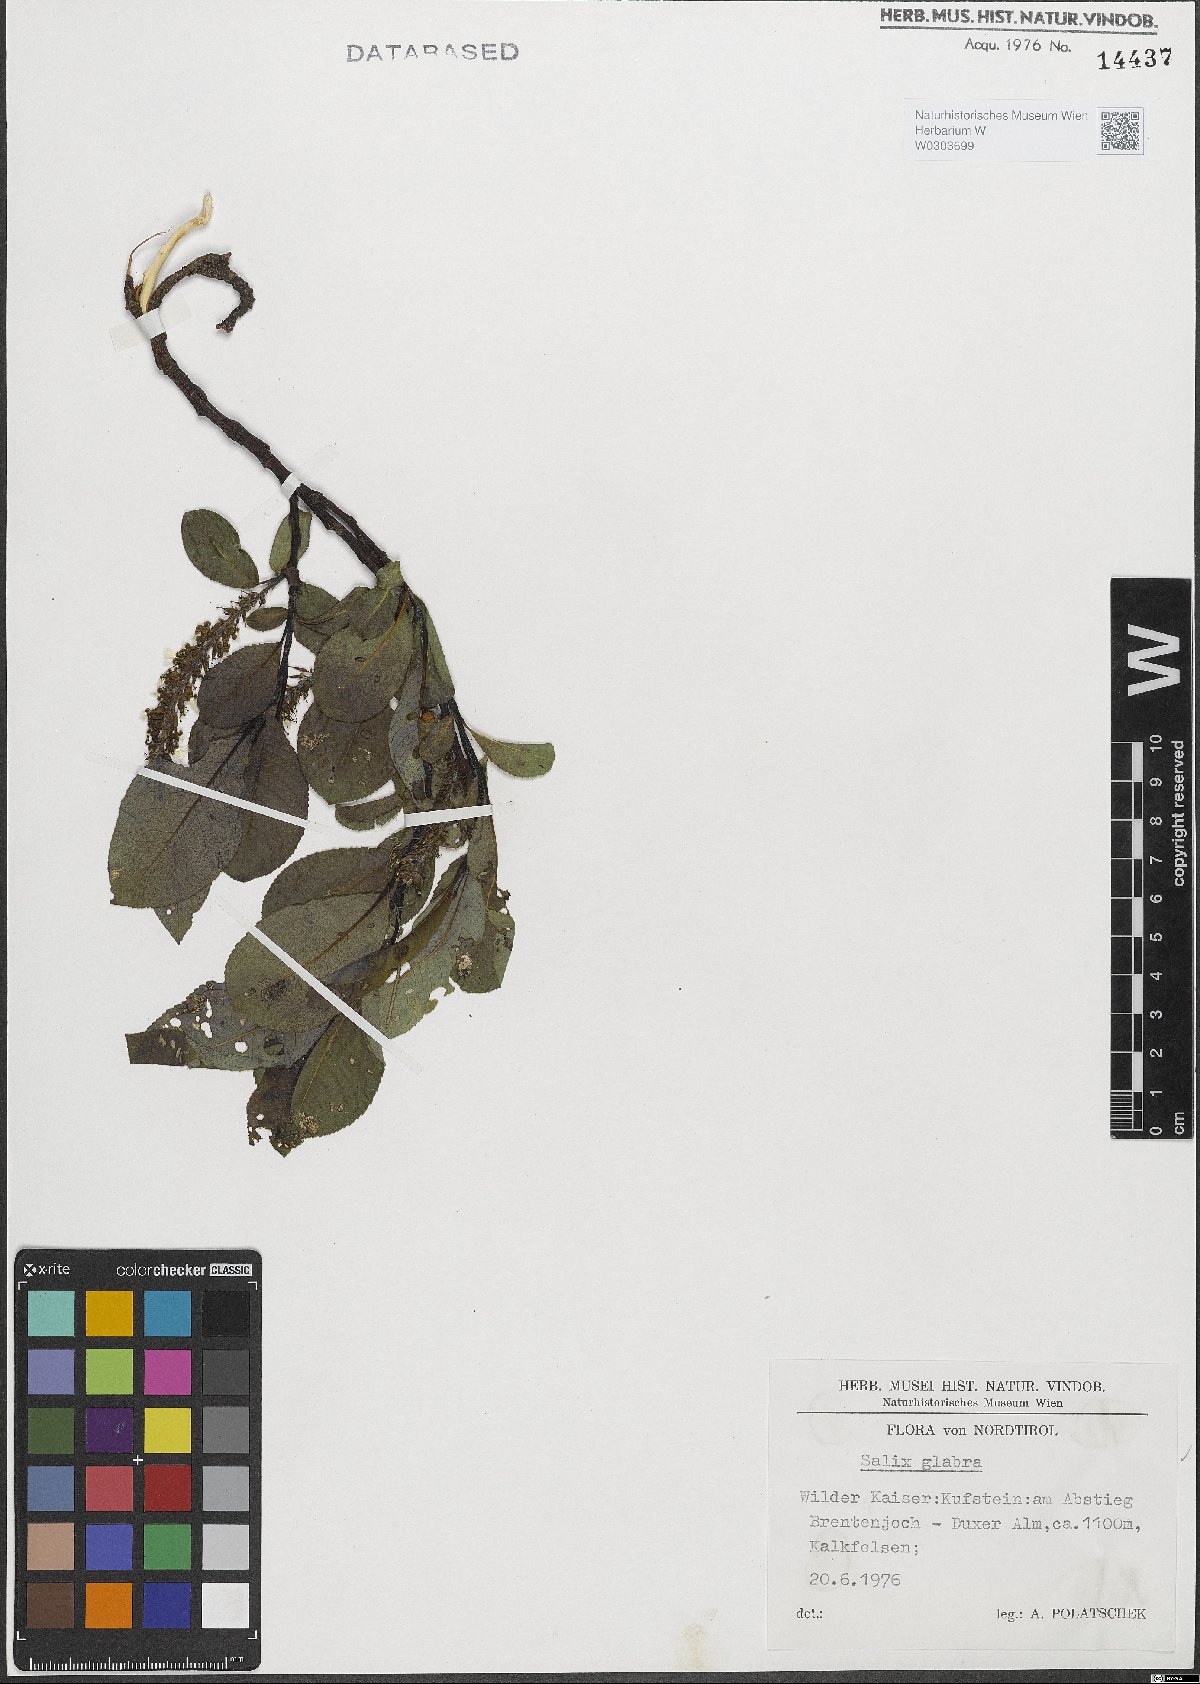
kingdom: Plantae
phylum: Tracheophyta
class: Magnoliopsida
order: Malpighiales
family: Salicaceae
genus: Salix
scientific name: Salix glabra
